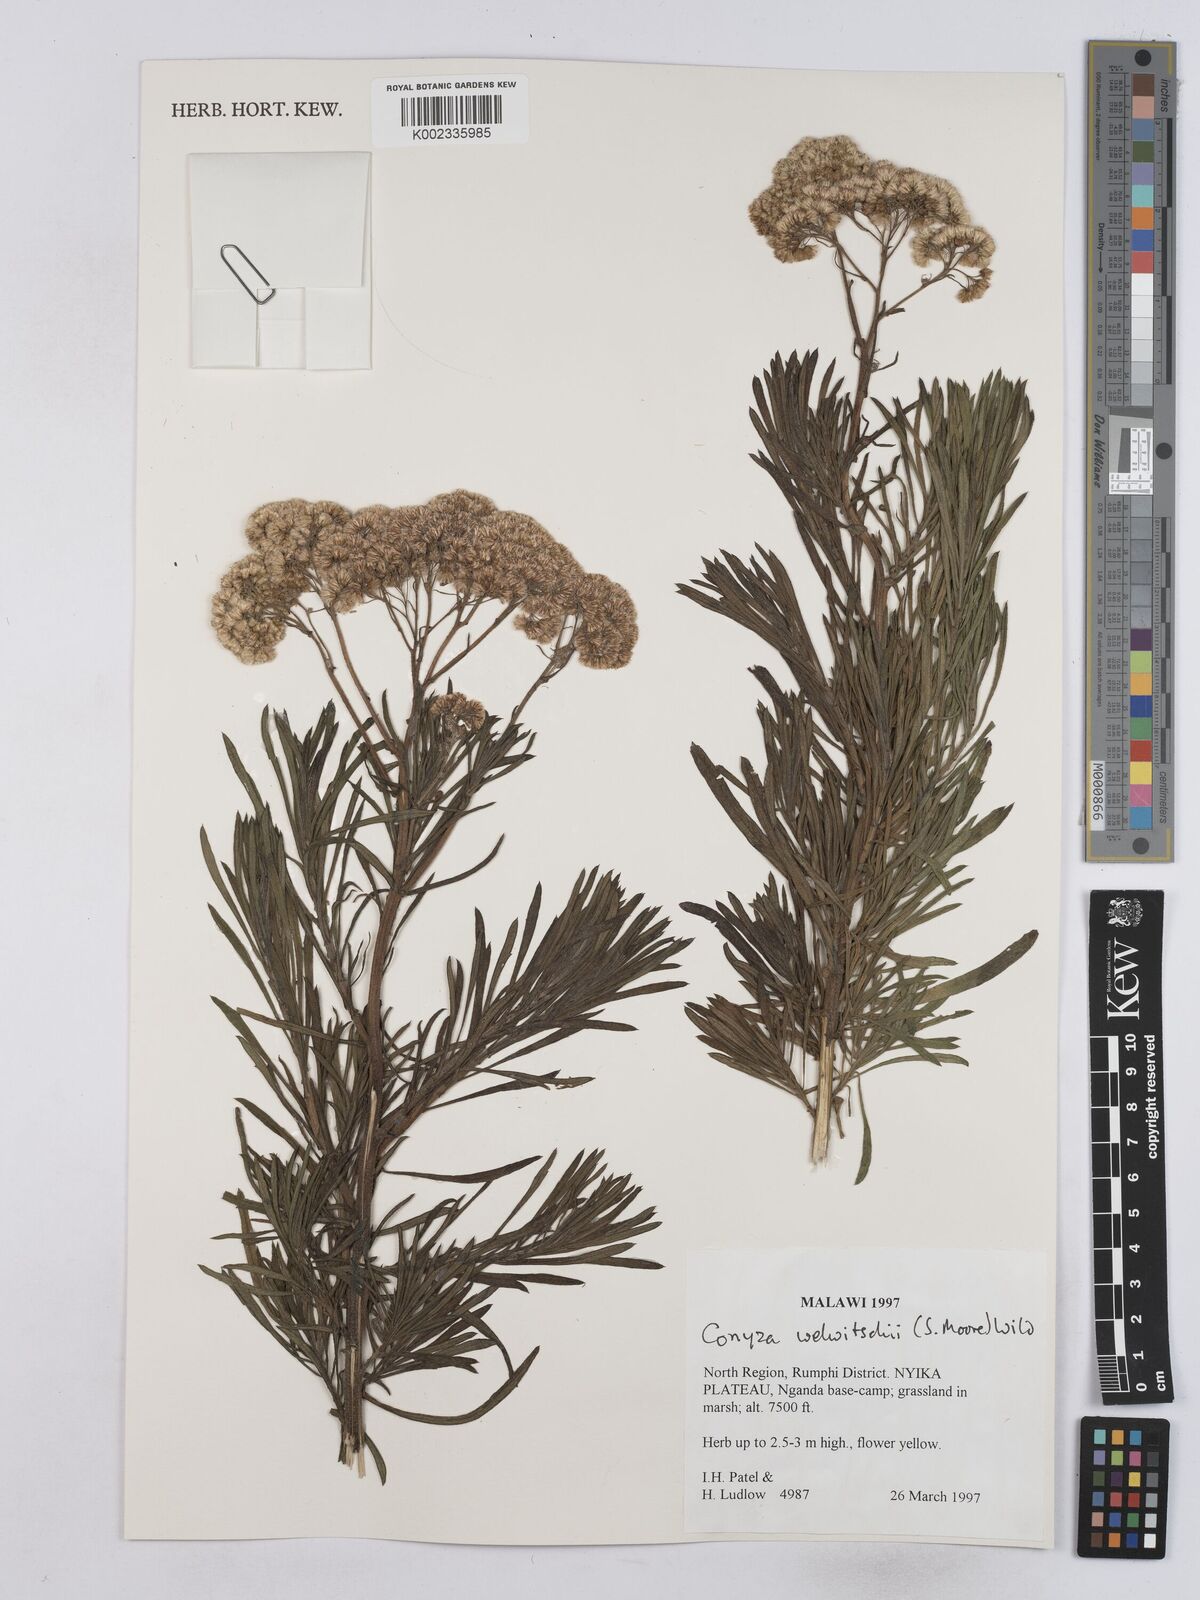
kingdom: Plantae
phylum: Tracheophyta
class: Magnoliopsida
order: Asterales
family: Asteraceae
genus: Nidorella
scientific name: Nidorella welwitschii
